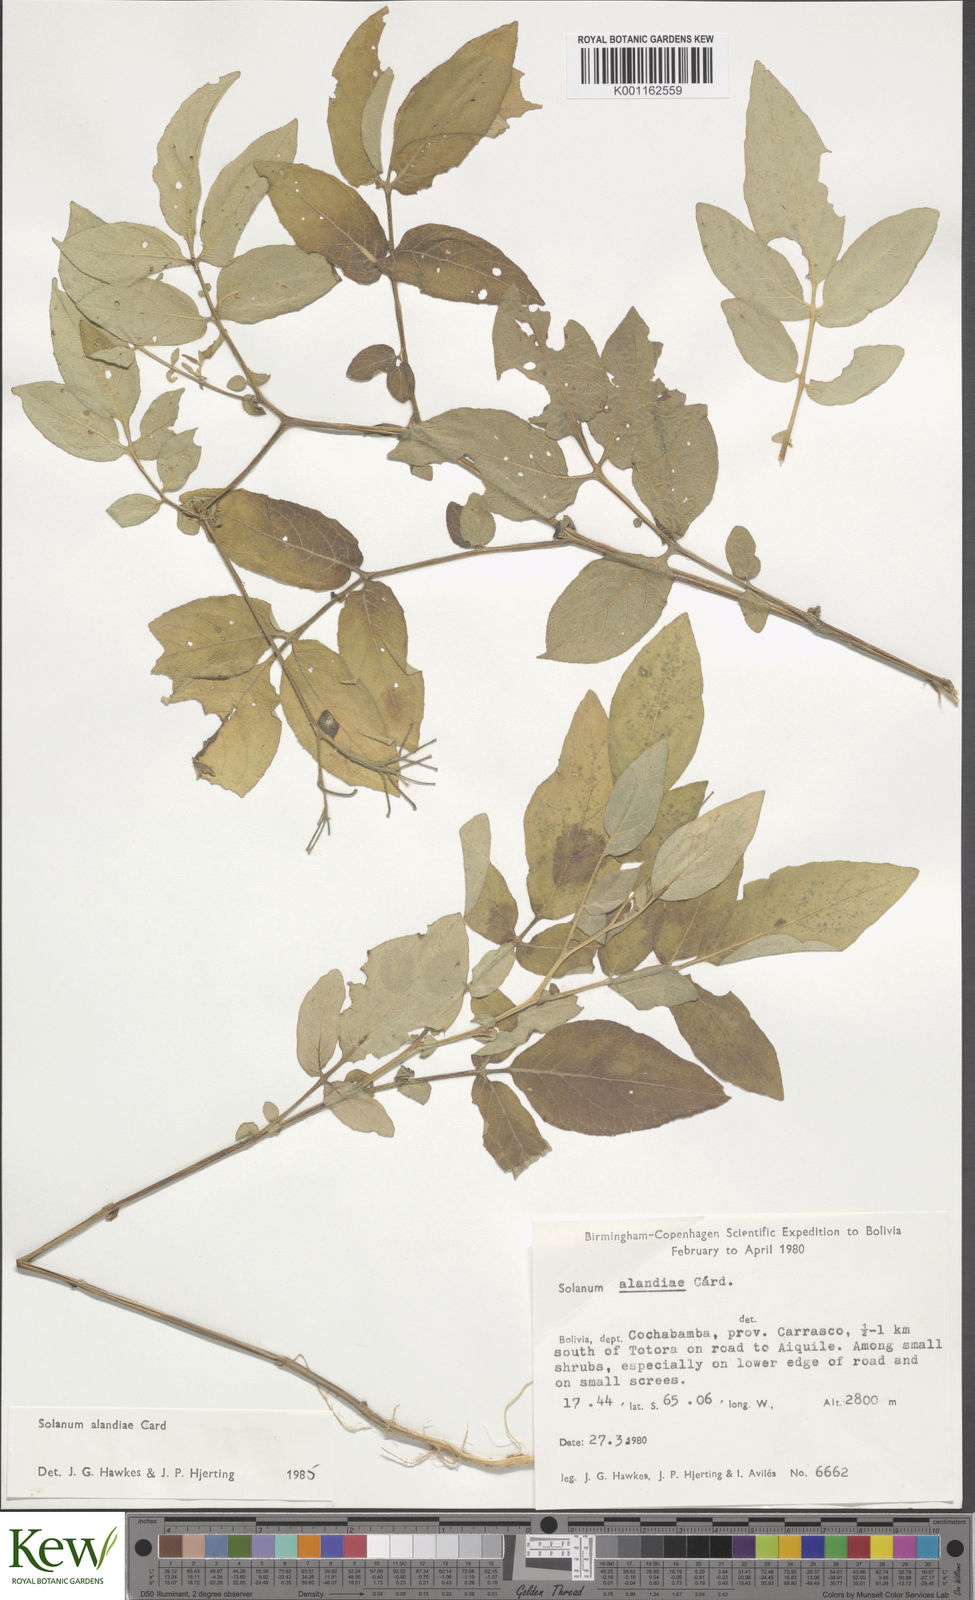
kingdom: Plantae
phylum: Tracheophyta
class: Magnoliopsida
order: Solanales
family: Solanaceae
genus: Solanum
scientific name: Solanum
